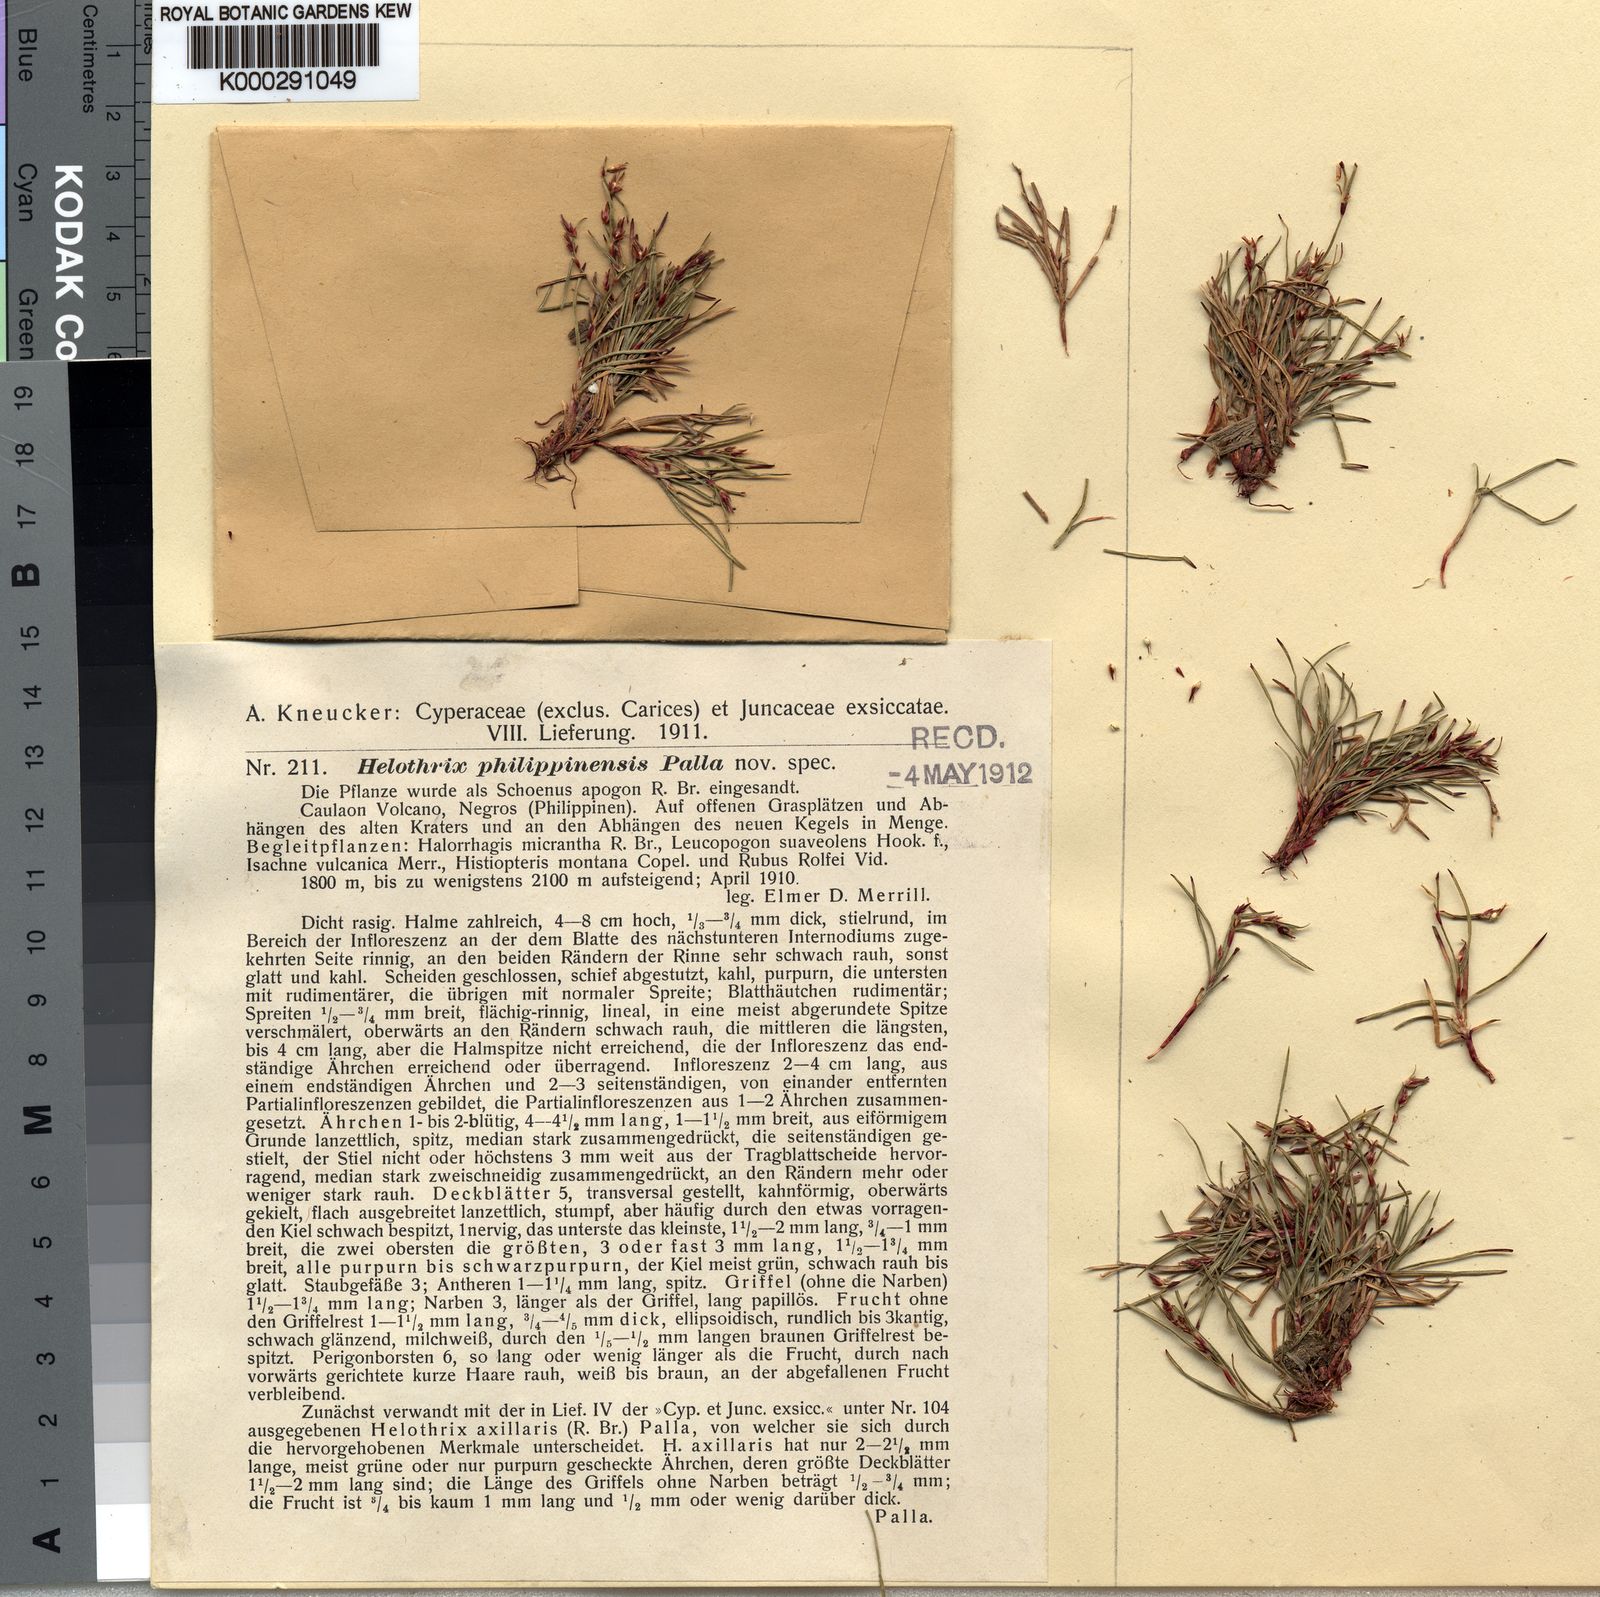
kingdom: Plantae
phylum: Tracheophyta
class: Liliopsida
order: Poales
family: Cyperaceae
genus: Schoenus
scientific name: Schoenus maschalinus
